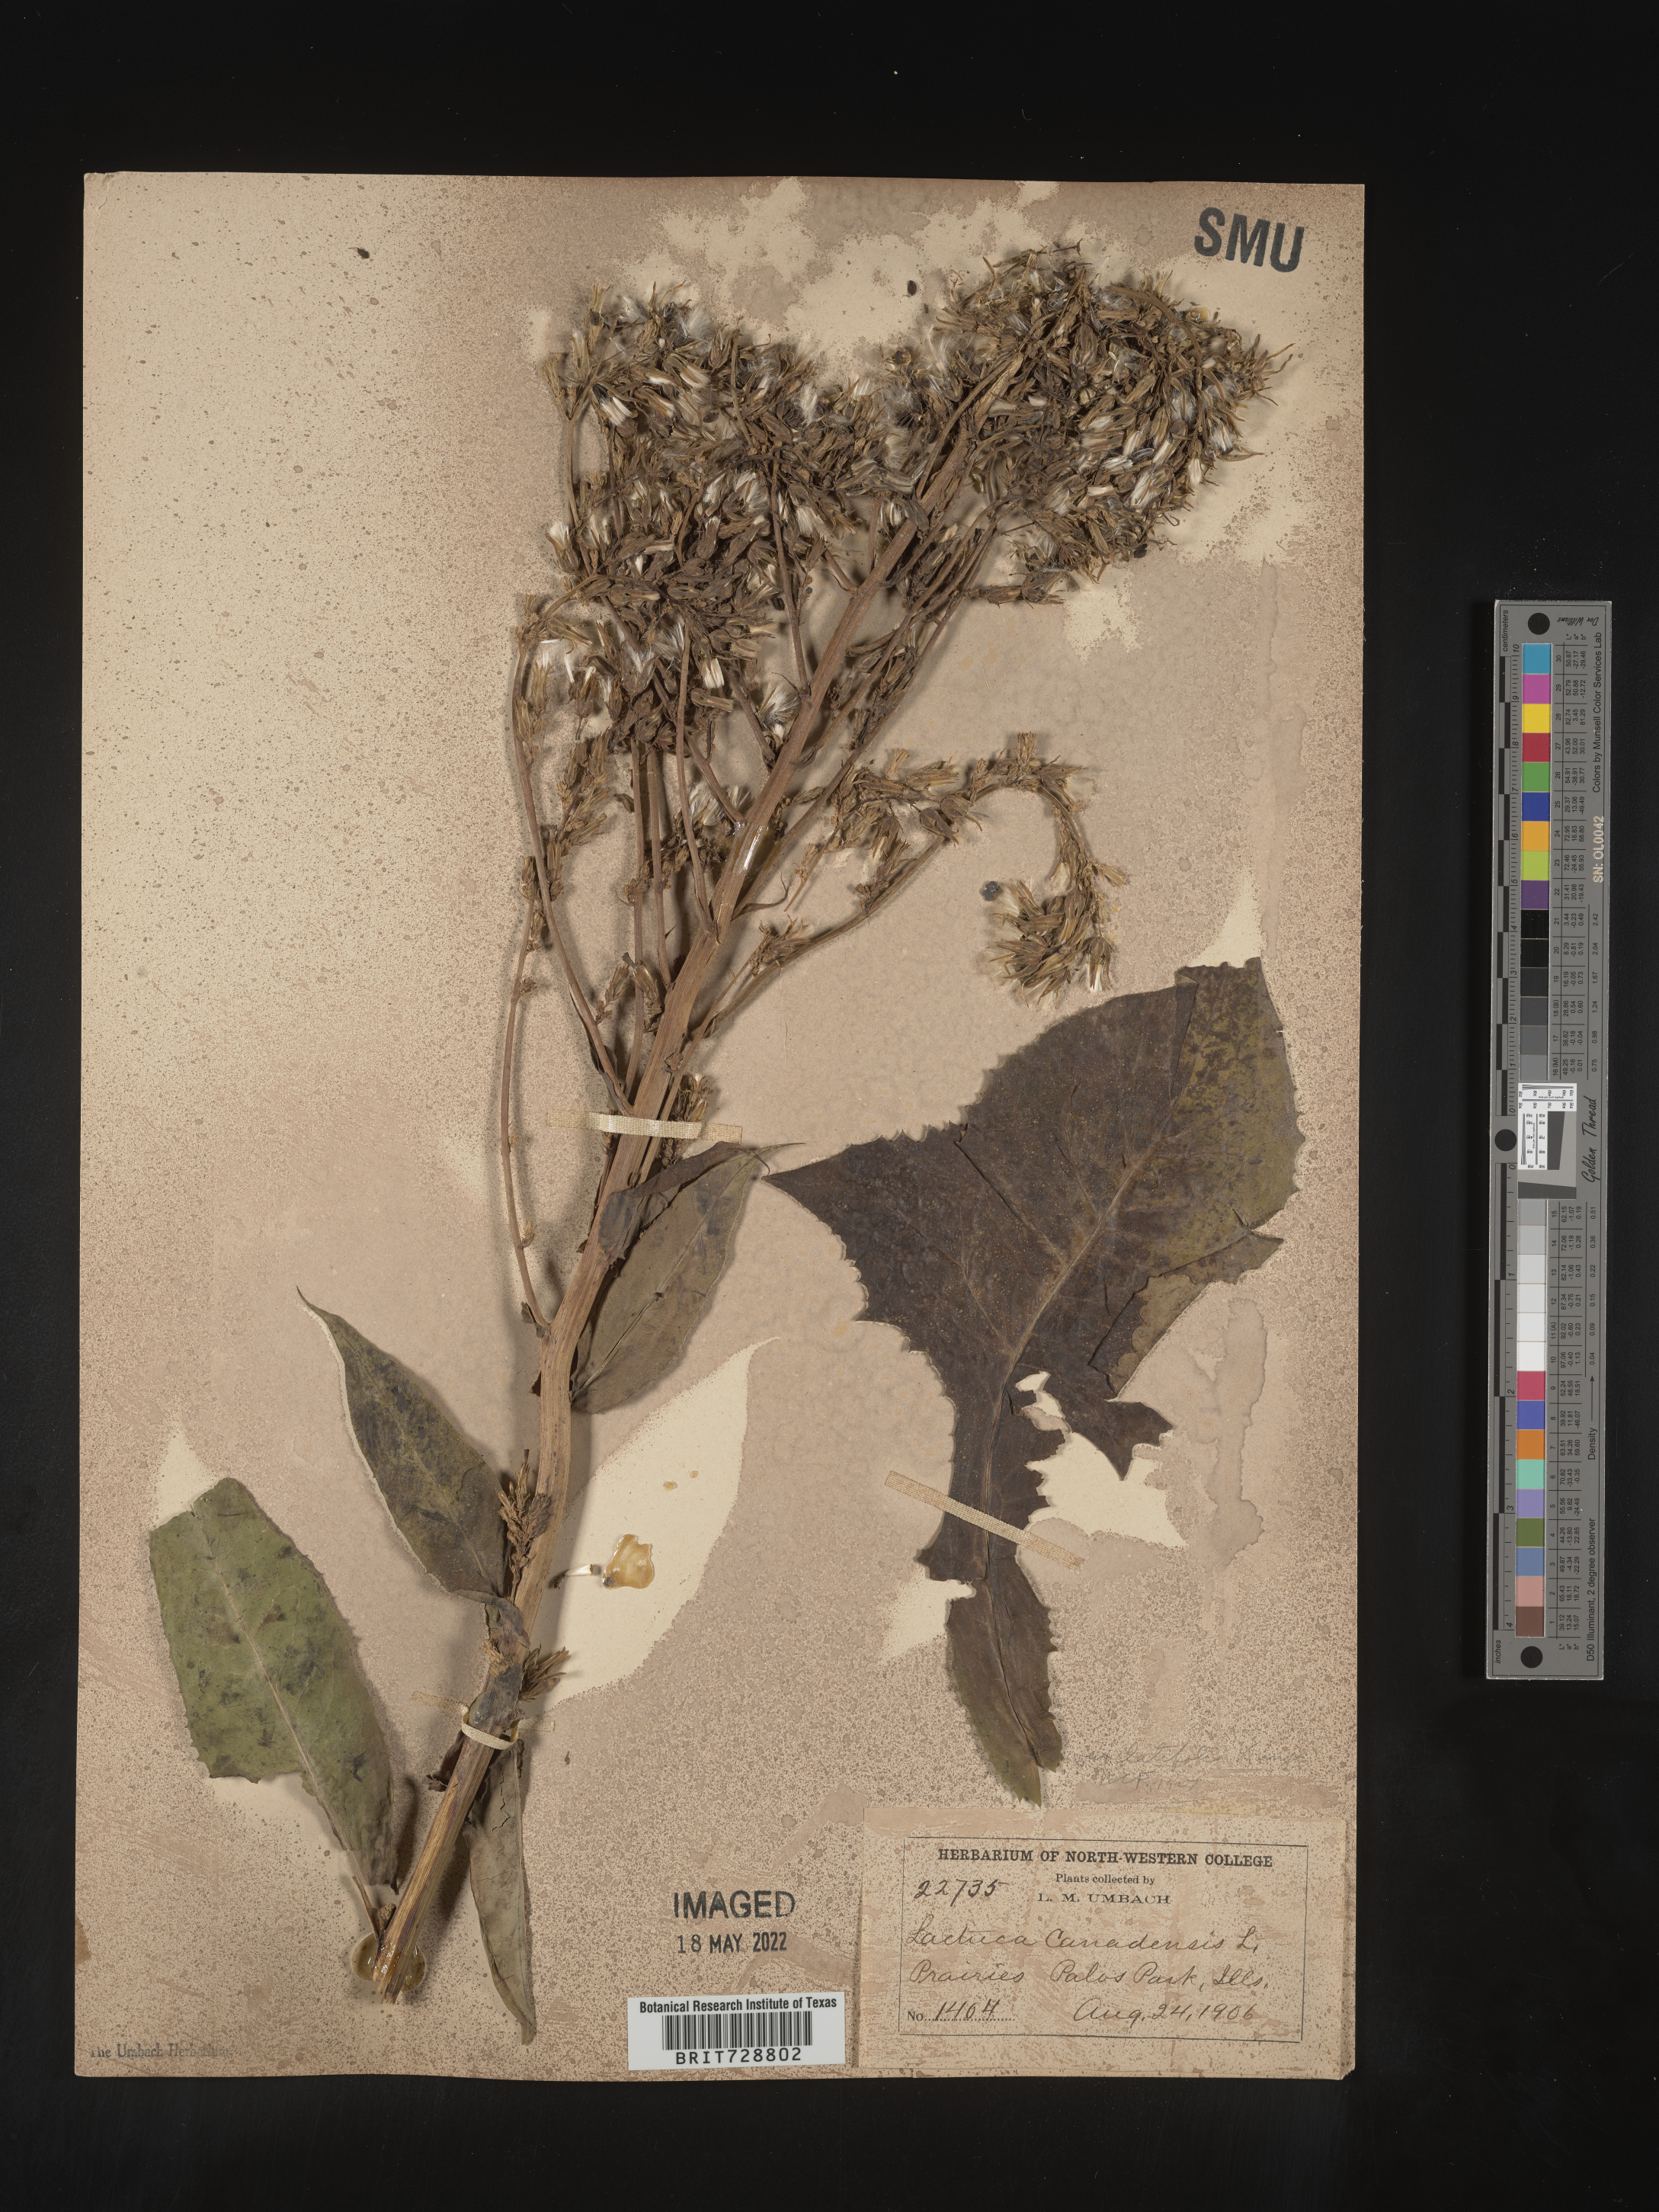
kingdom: Plantae
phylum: Tracheophyta
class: Magnoliopsida
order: Asterales
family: Asteraceae
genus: Lactuca
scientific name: Lactuca canadensis
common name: Canada lettuce
